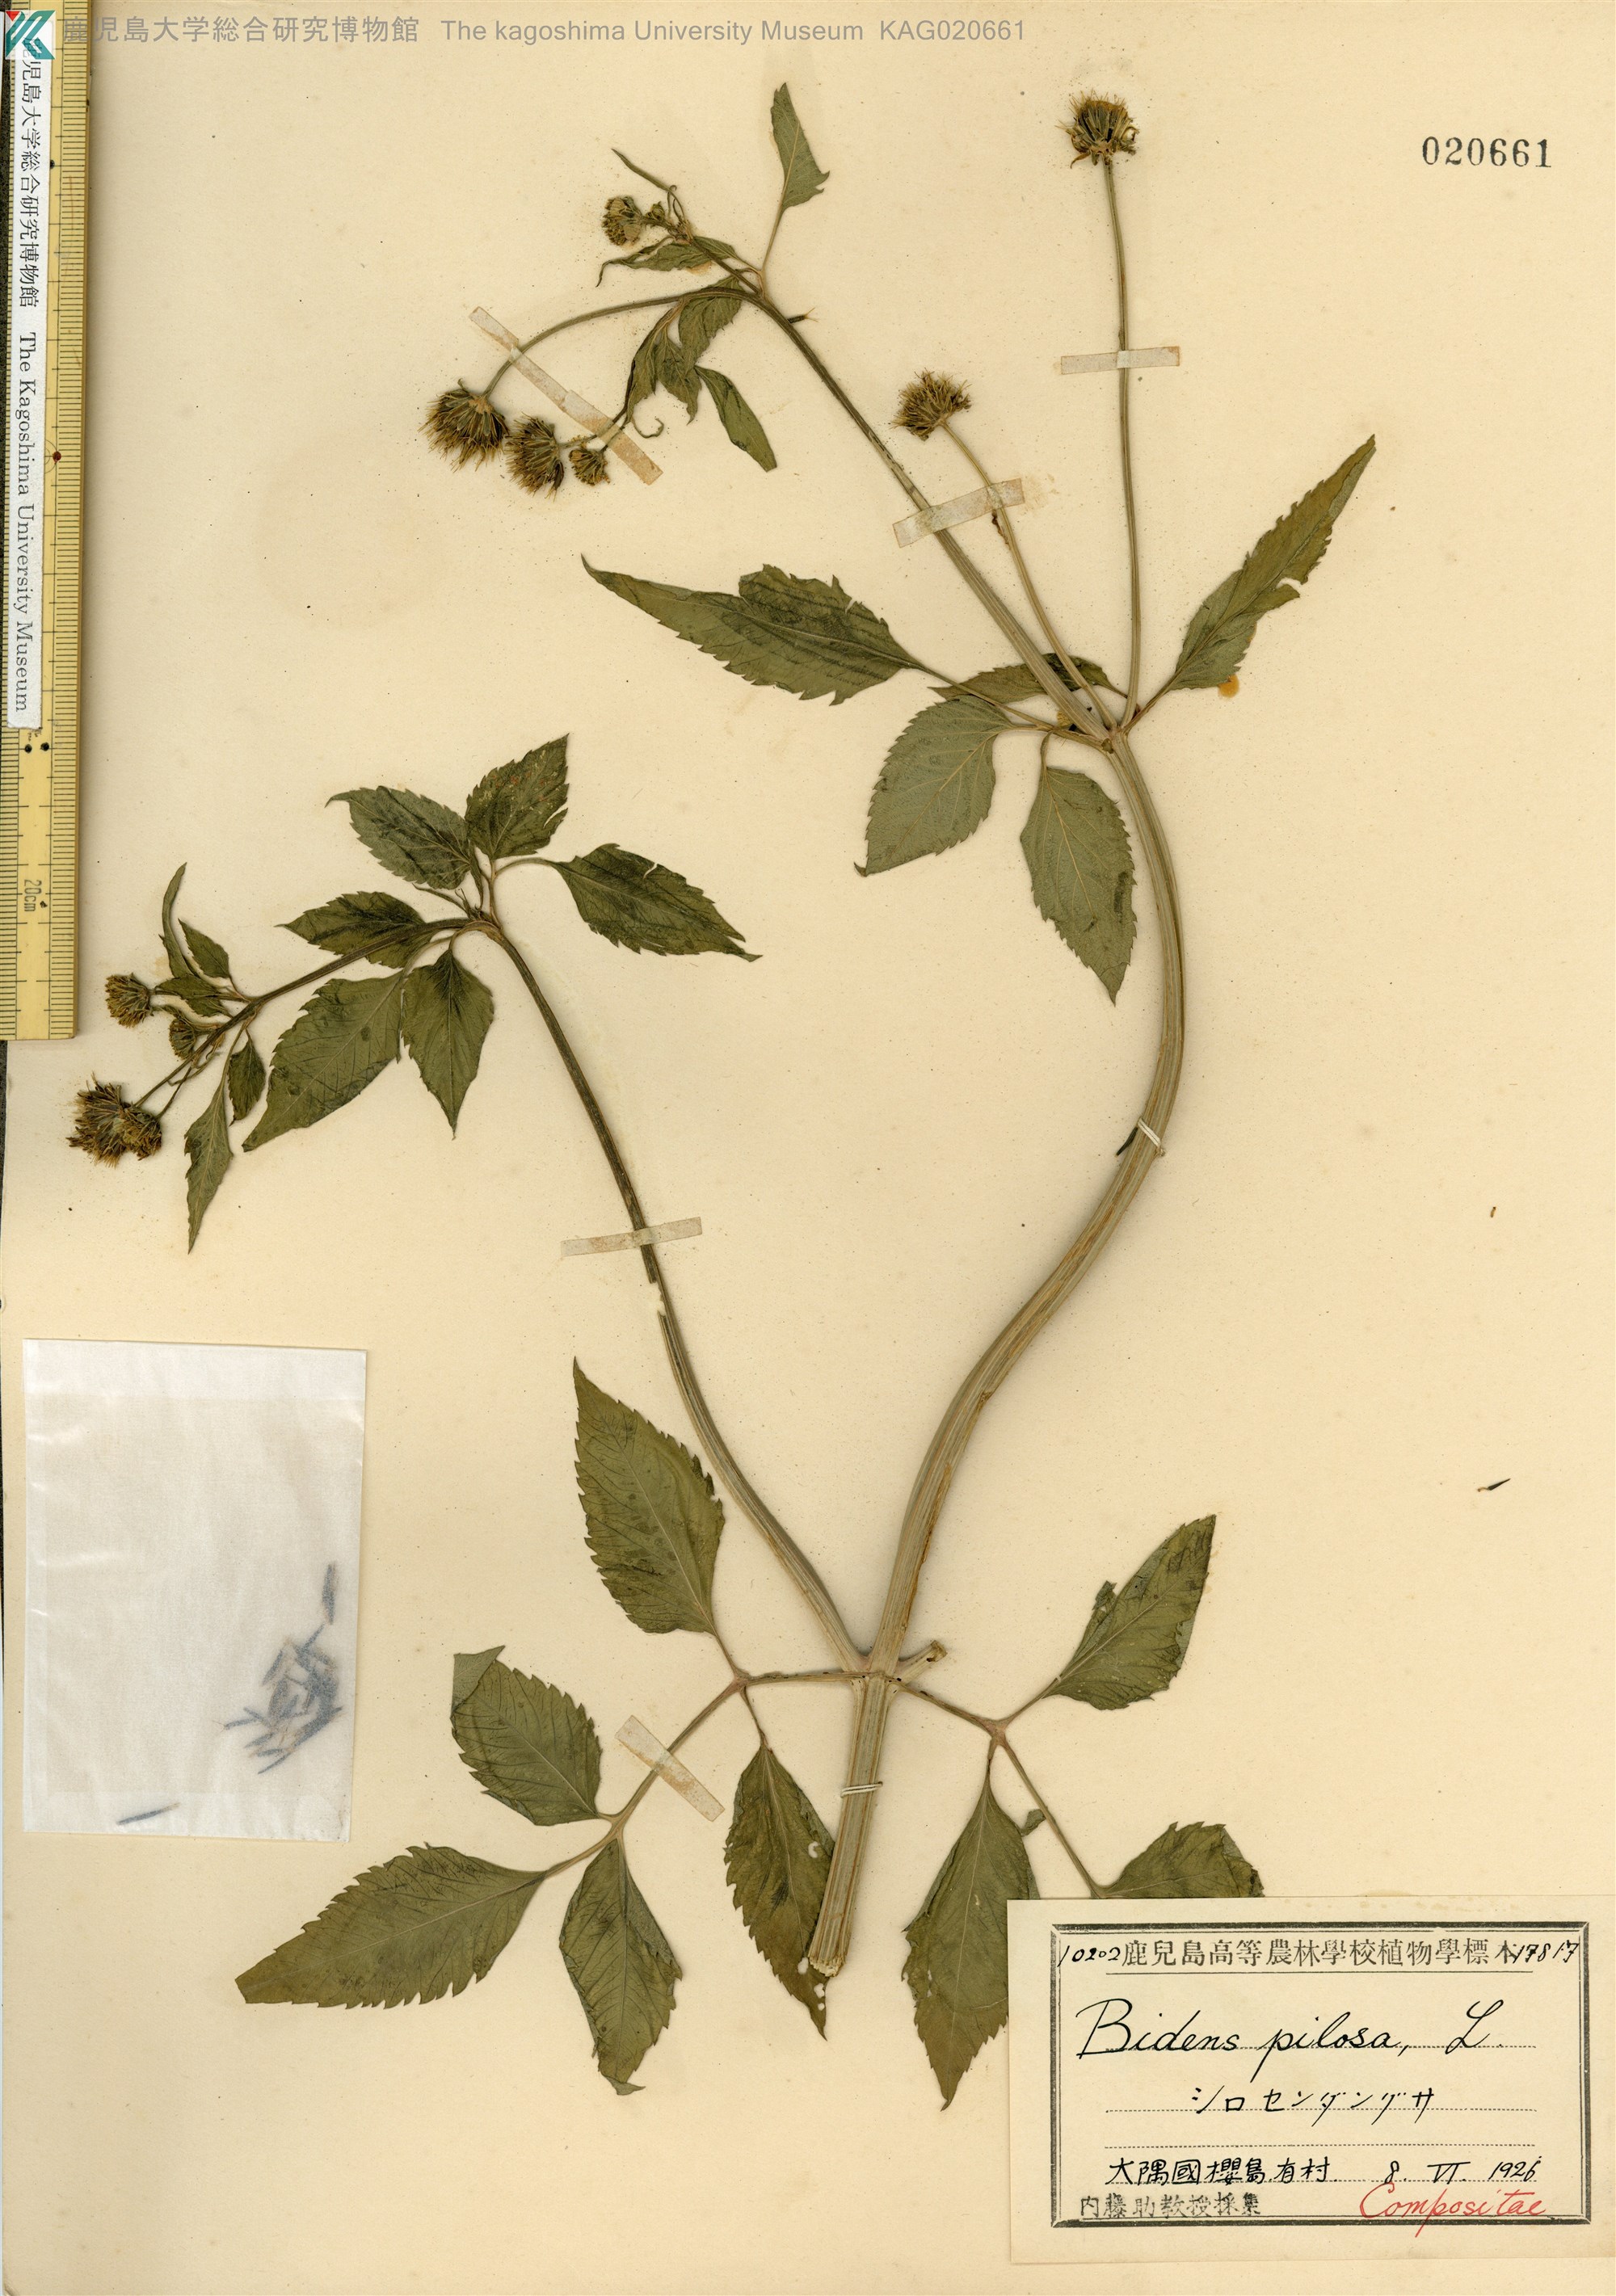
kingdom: Plantae
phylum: Tracheophyta
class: Magnoliopsida
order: Asterales
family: Asteraceae
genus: Bidens
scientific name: Bidens pilosa
